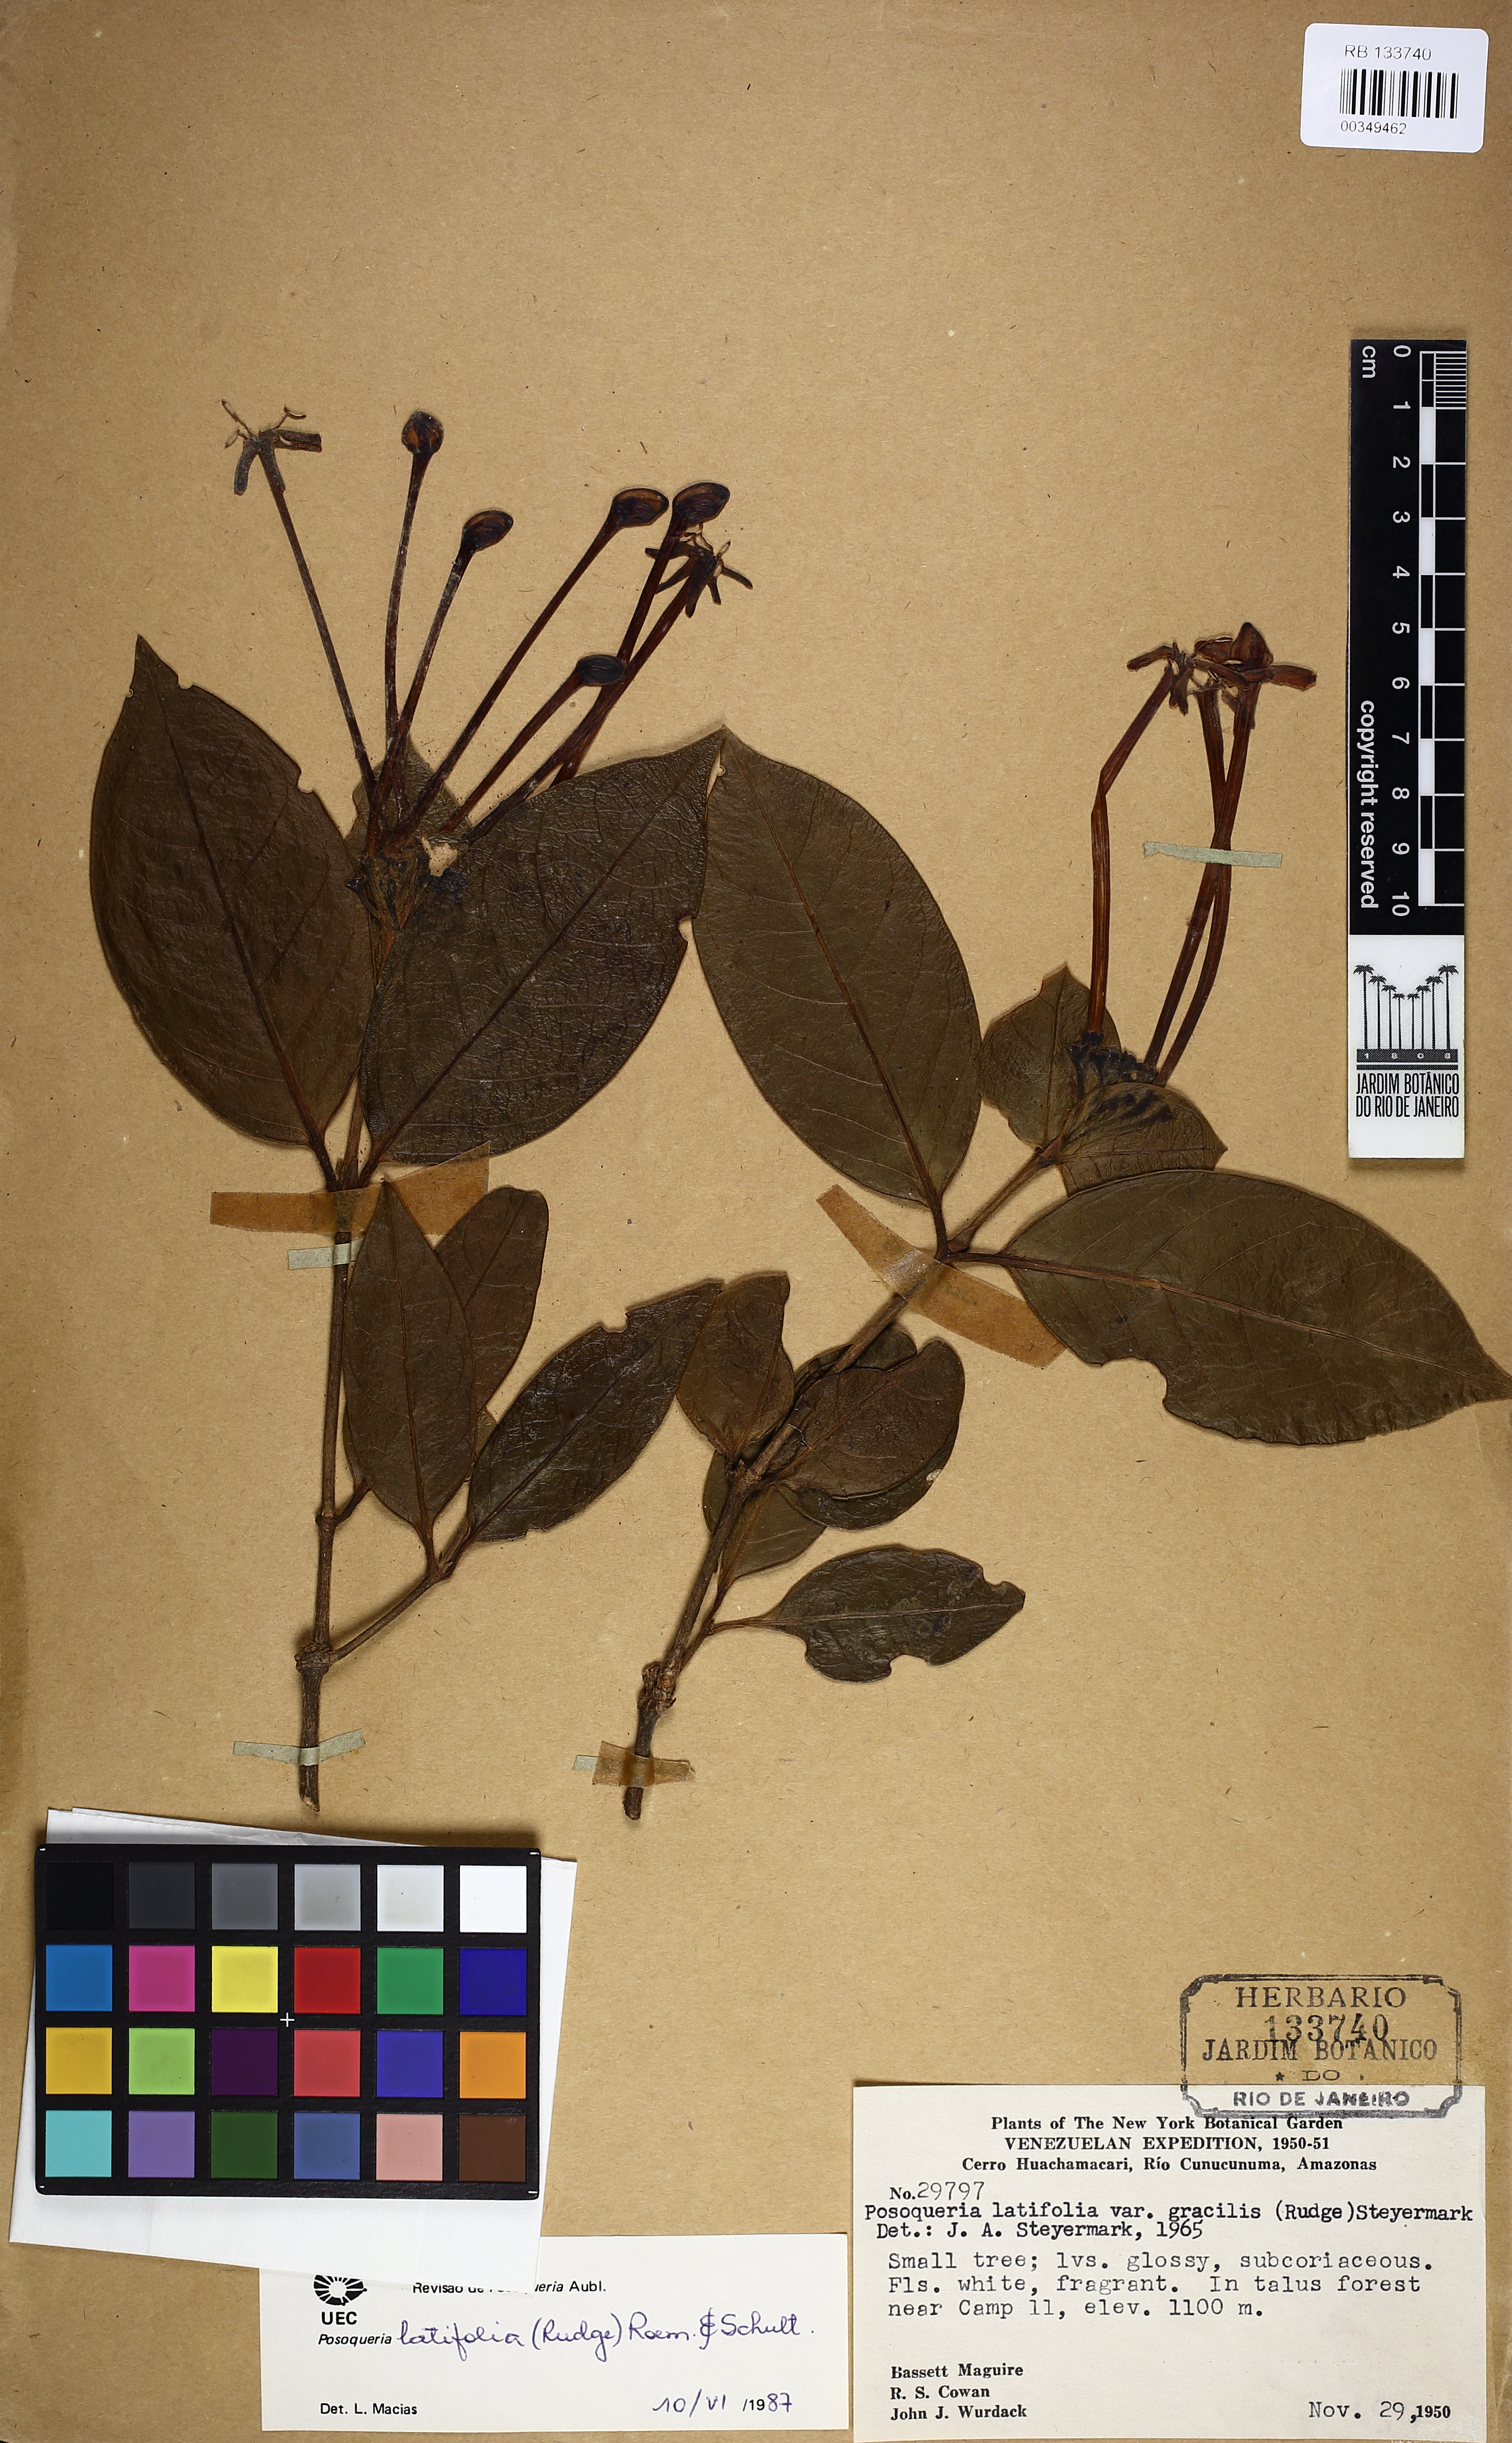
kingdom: Plantae
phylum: Tracheophyta
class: Magnoliopsida
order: Gentianales
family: Rubiaceae
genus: Posoqueria
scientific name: Posoqueria latifolia
